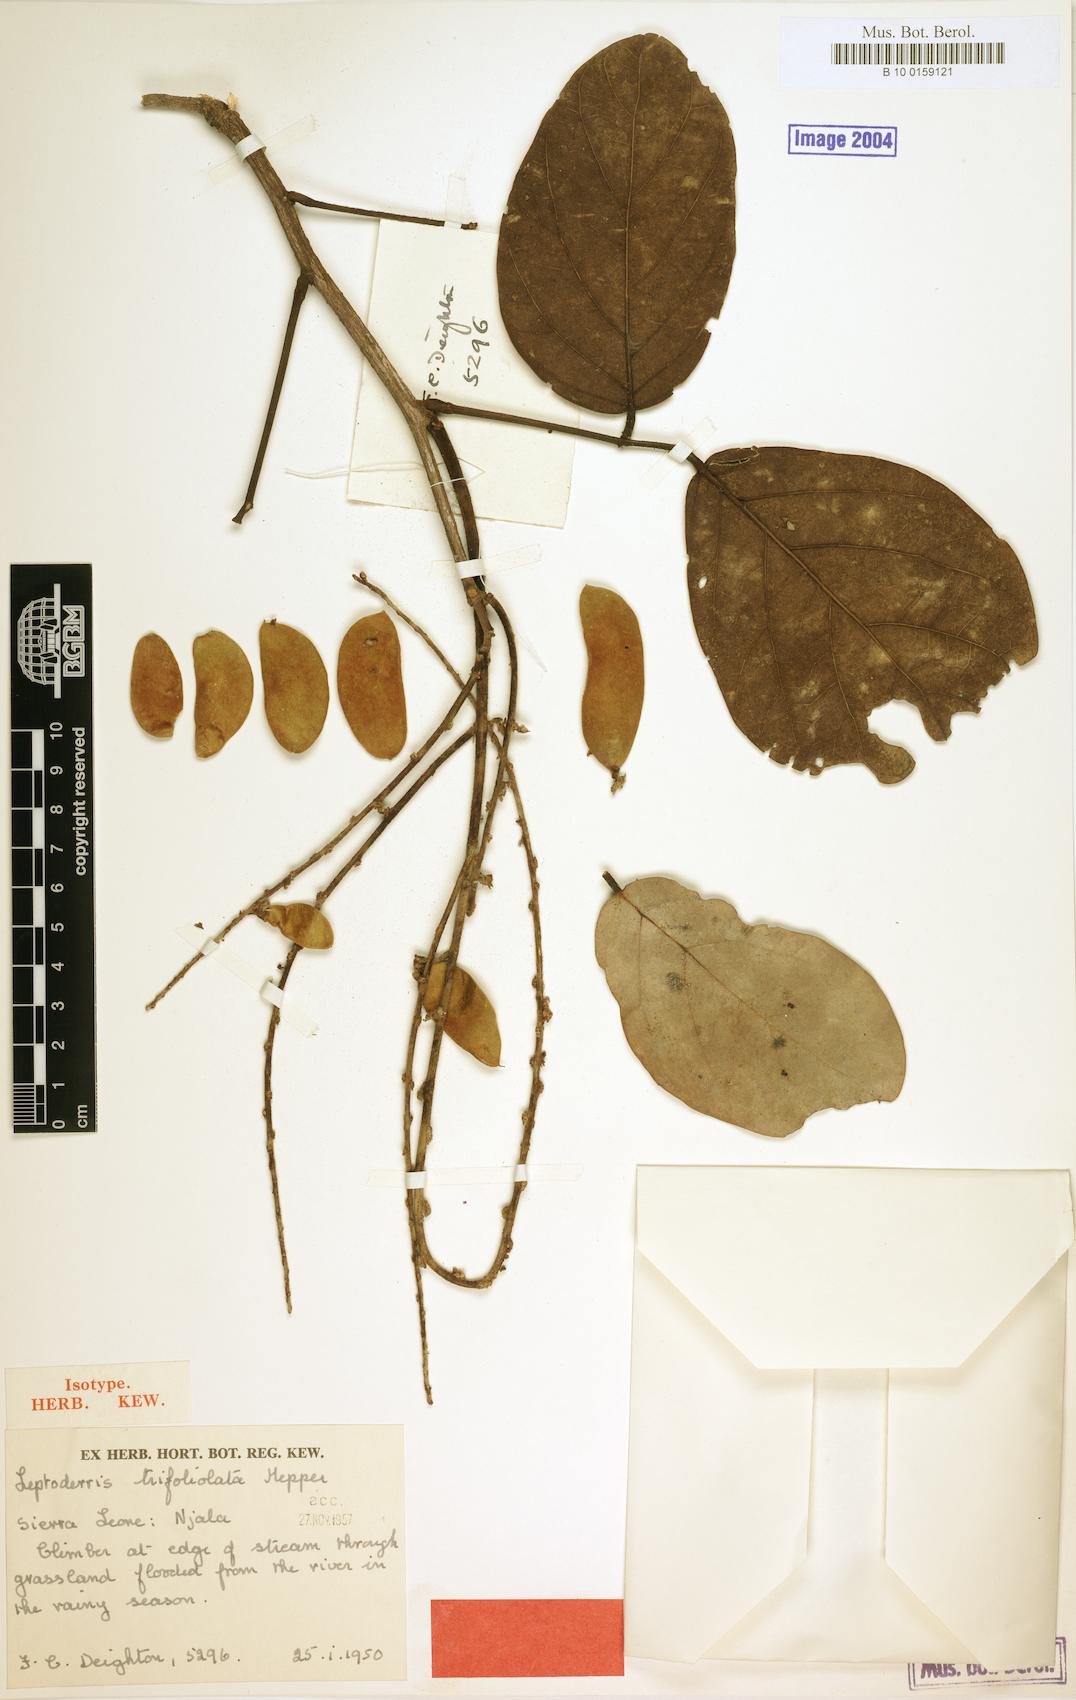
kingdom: Plantae
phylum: Tracheophyta
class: Magnoliopsida
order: Fabales
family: Fabaceae
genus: Leptoderris
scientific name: Leptoderris trifoliolata
